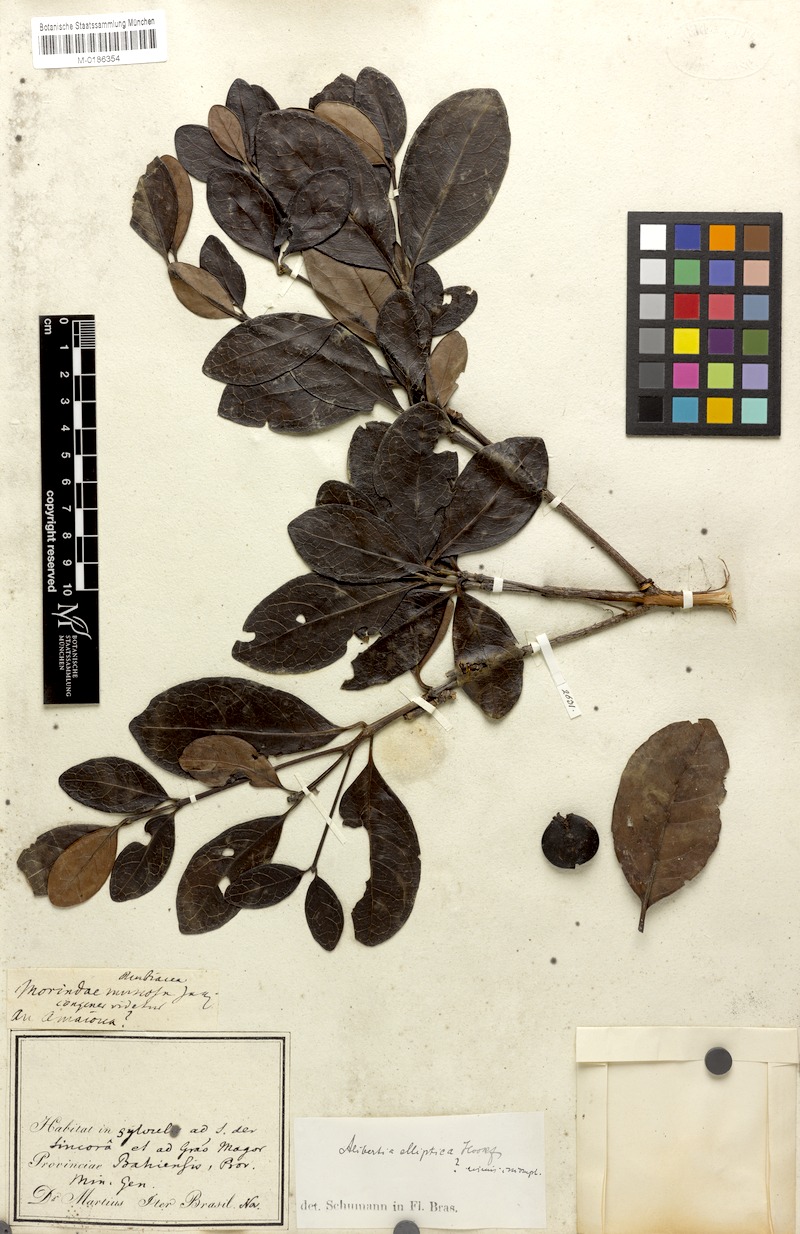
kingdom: Plantae
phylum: Tracheophyta
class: Magnoliopsida
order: Gentianales
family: Rubiaceae
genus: Cordiera
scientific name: Cordiera elliptica
